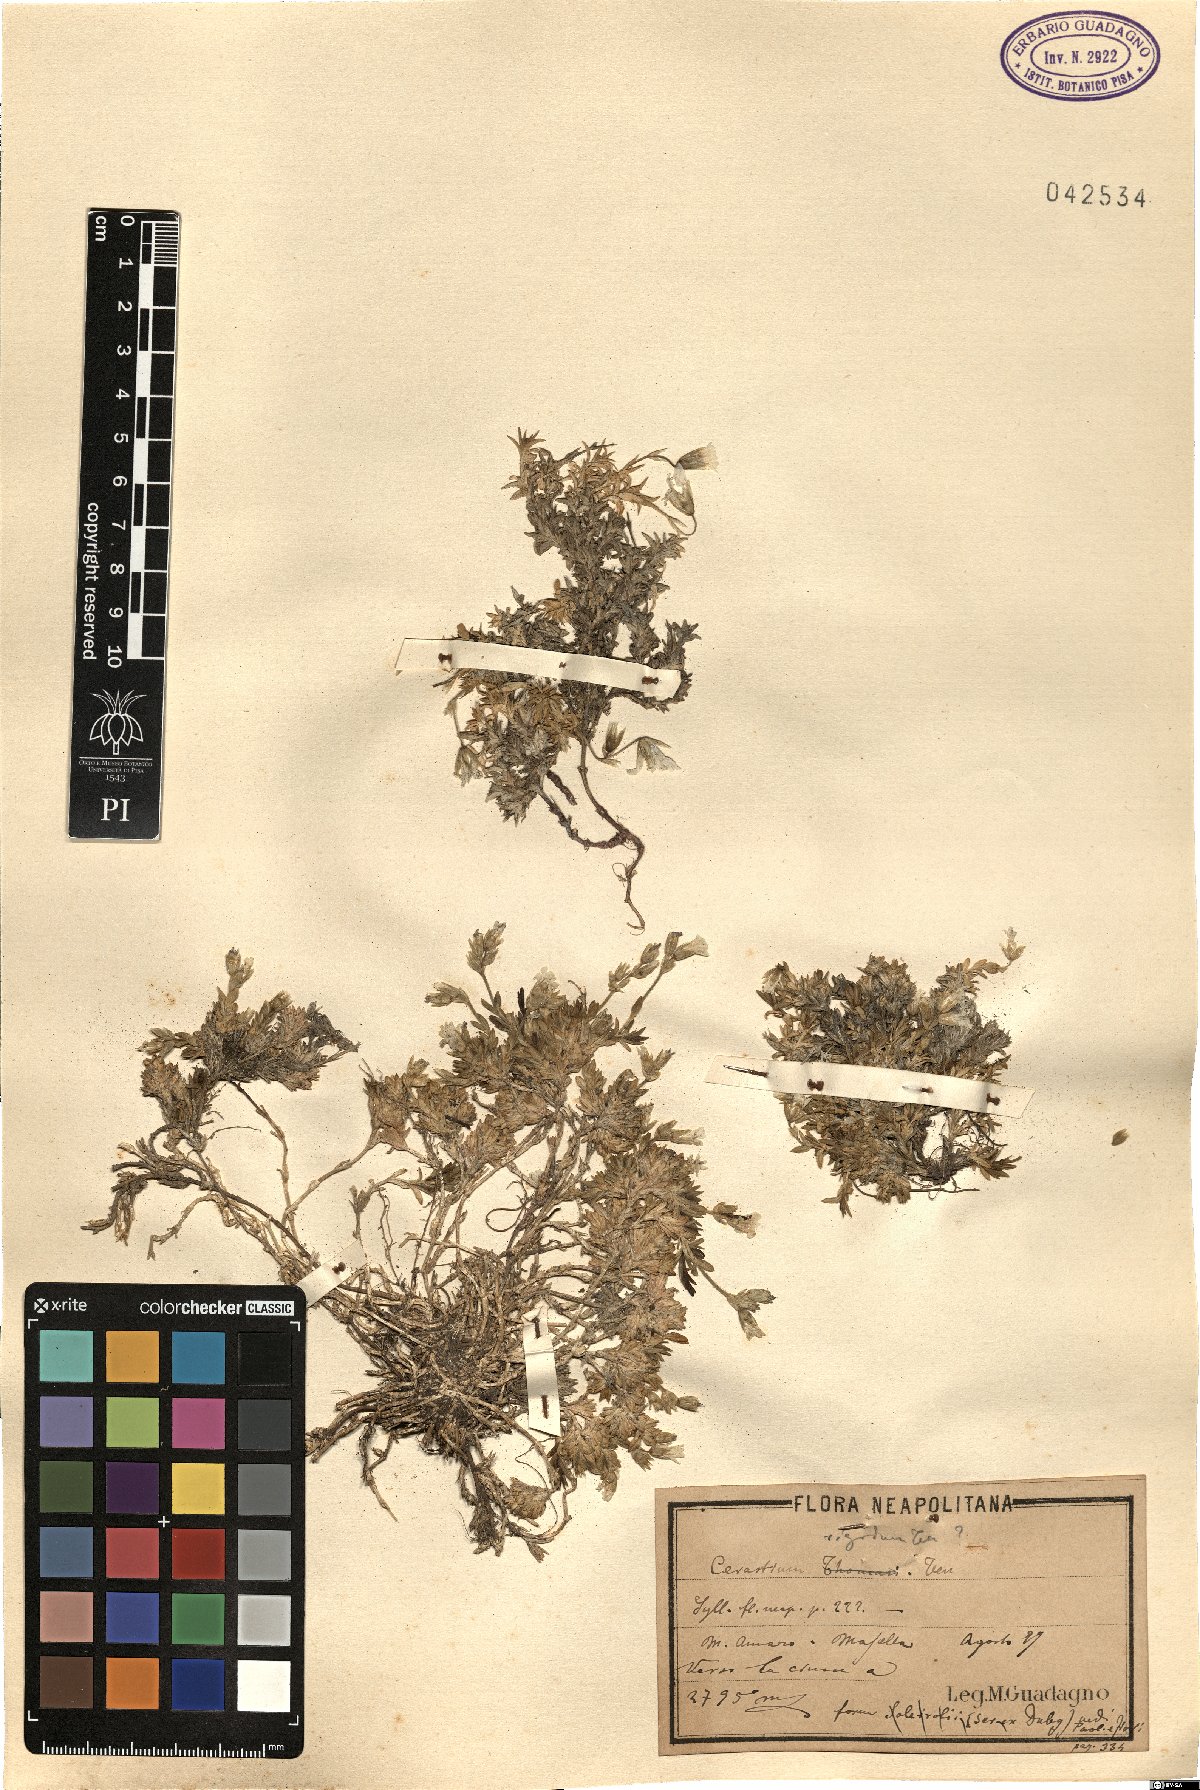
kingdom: Plantae
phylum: Tracheophyta
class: Magnoliopsida
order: Caryophyllales
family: Caryophyllaceae
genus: Cerastium
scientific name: Cerastium arvense
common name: Field mouse-ear
